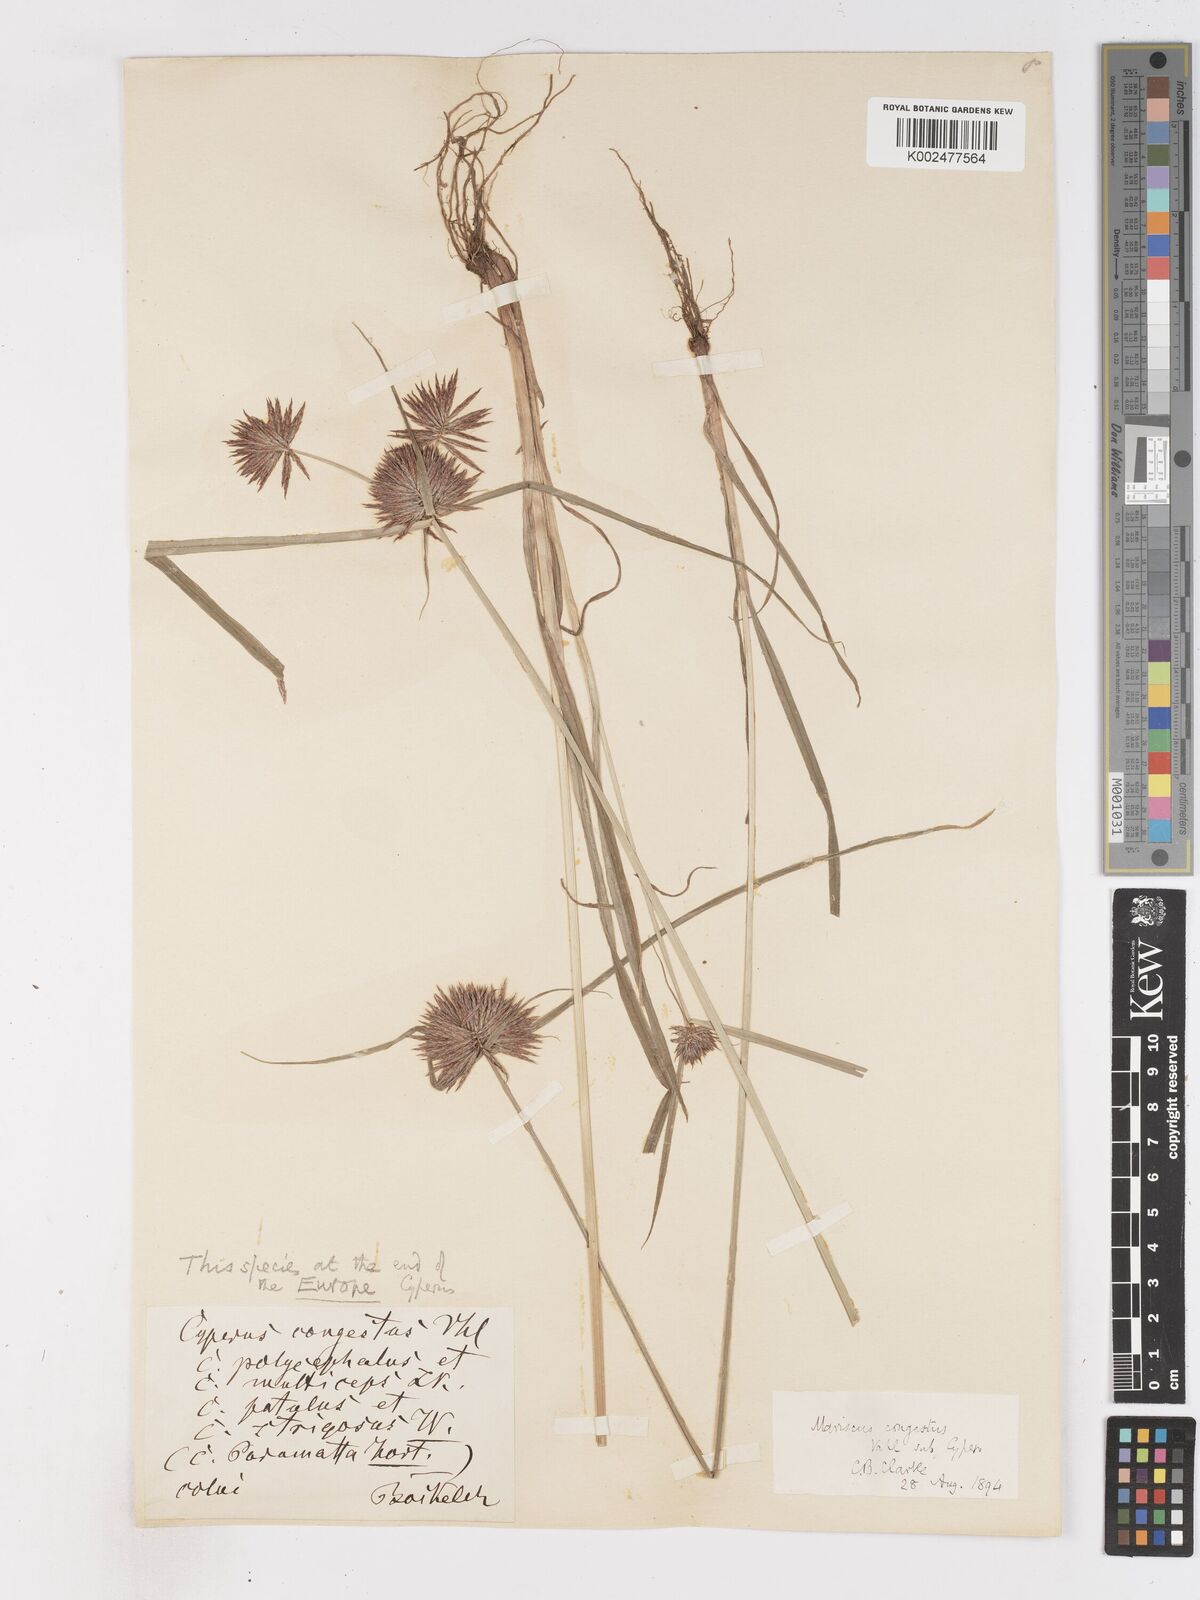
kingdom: Plantae
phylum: Tracheophyta
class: Liliopsida
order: Poales
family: Cyperaceae
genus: Cyperus
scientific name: Cyperus congestus
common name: Dense flat sedge
